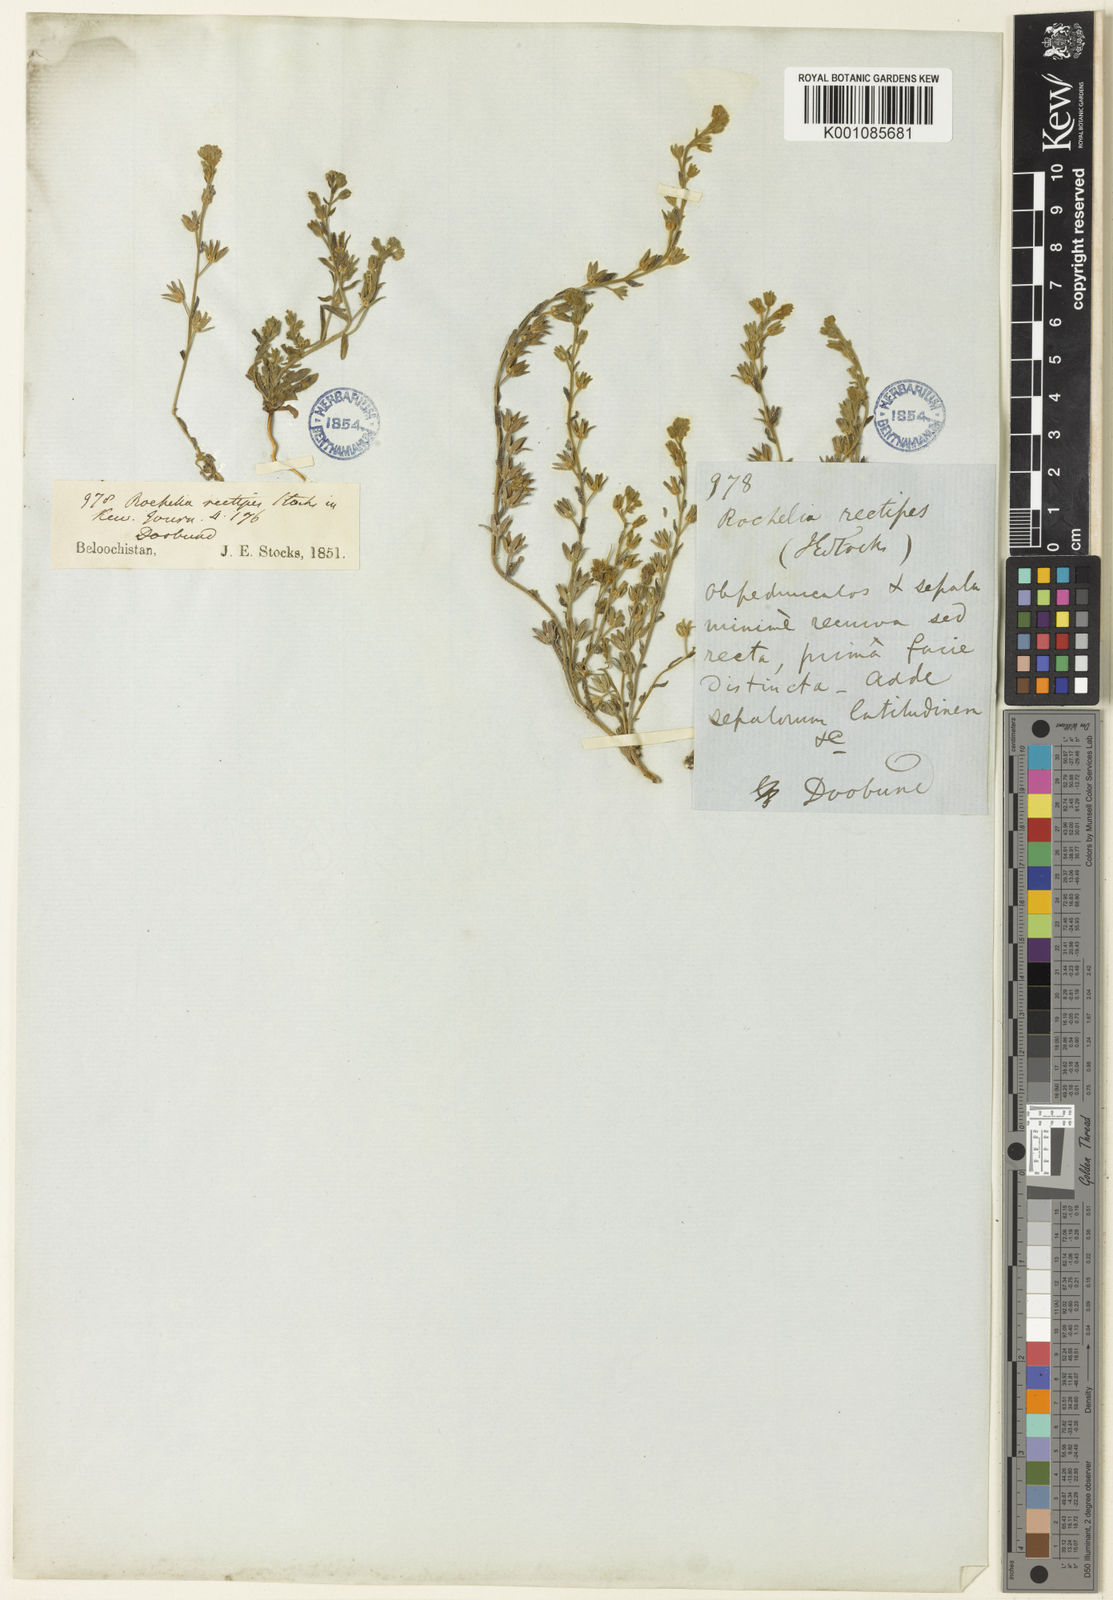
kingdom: Plantae
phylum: Tracheophyta
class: Magnoliopsida
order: Boraginales
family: Boraginaceae
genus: Anchusa
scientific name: Anchusa officinalis
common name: Alkanet
